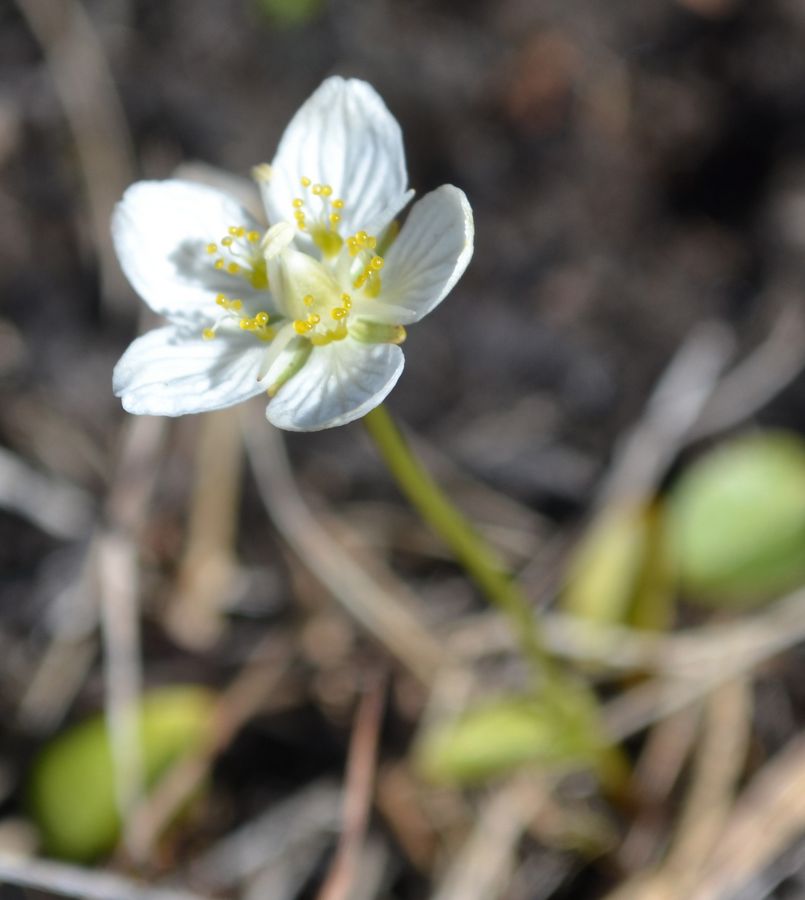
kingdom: Plantae
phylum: Tracheophyta
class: Magnoliopsida
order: Celastrales
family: Parnassiaceae
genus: Parnassia
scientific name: Parnassia palustris
